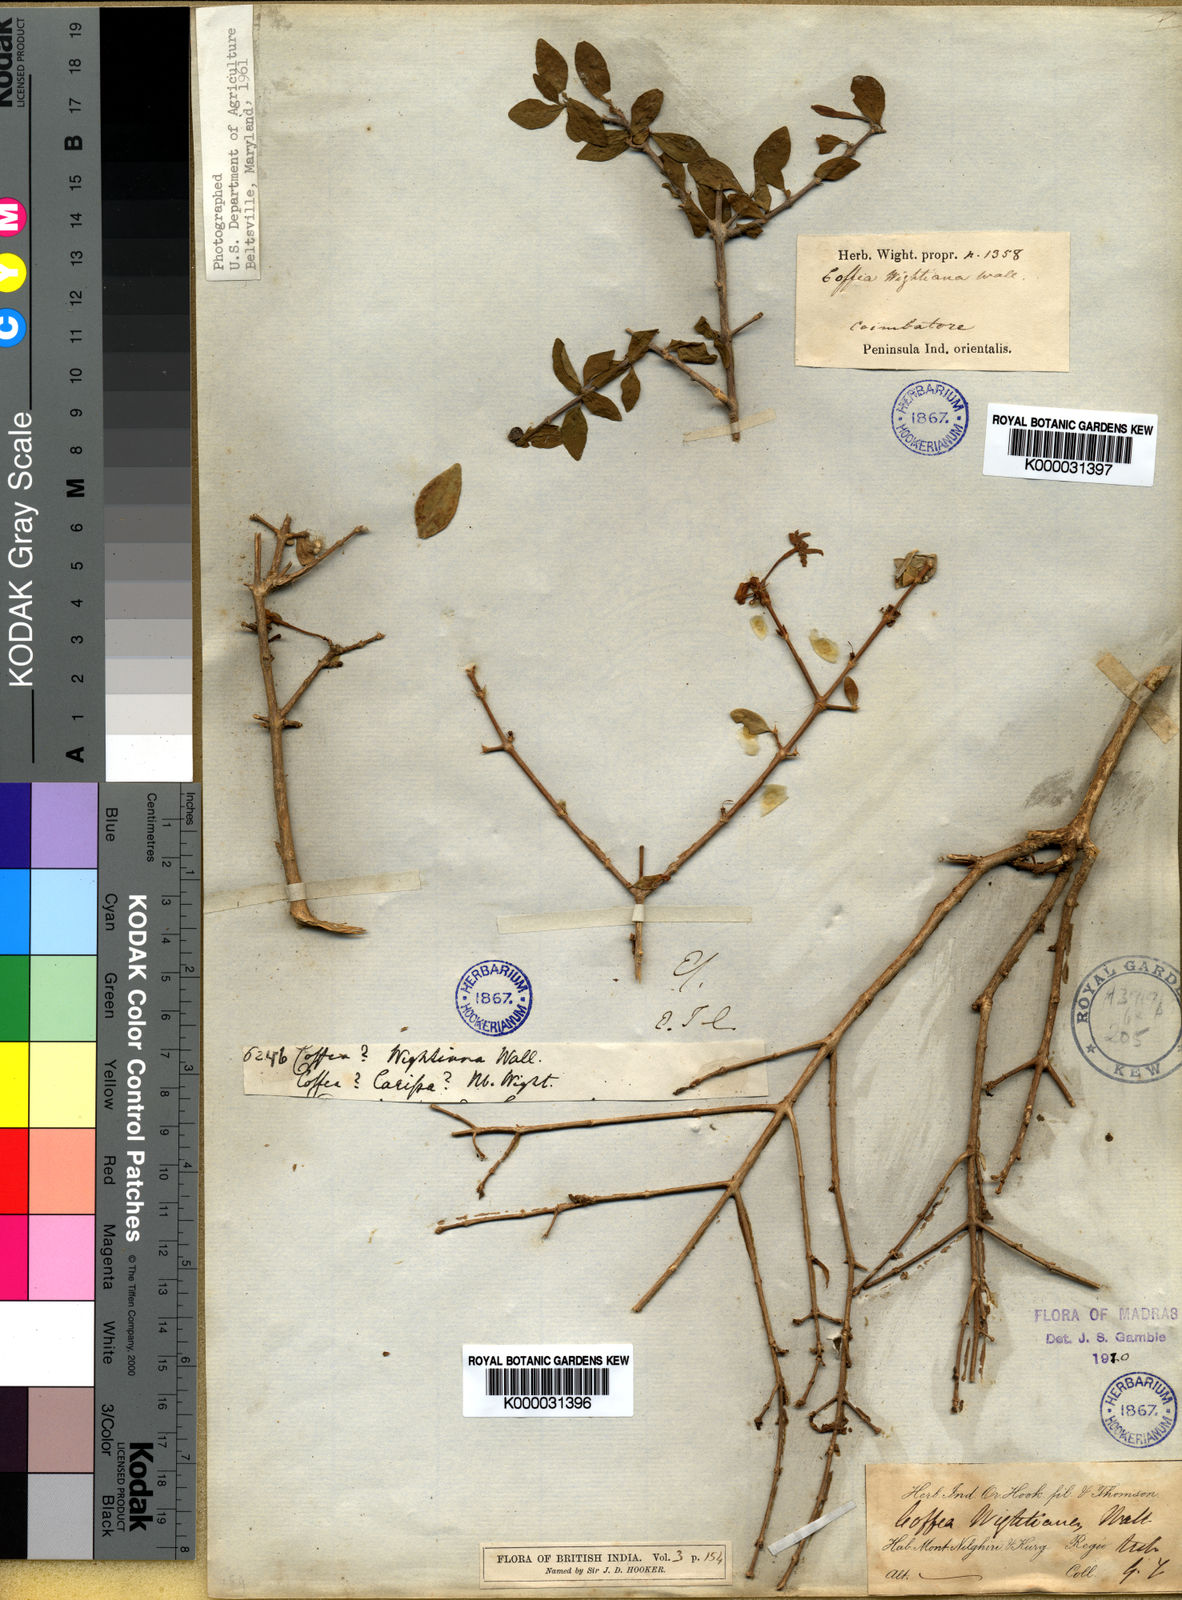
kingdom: Plantae
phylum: Tracheophyta
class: Magnoliopsida
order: Gentianales
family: Rubiaceae
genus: Coffea
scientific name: Coffea
